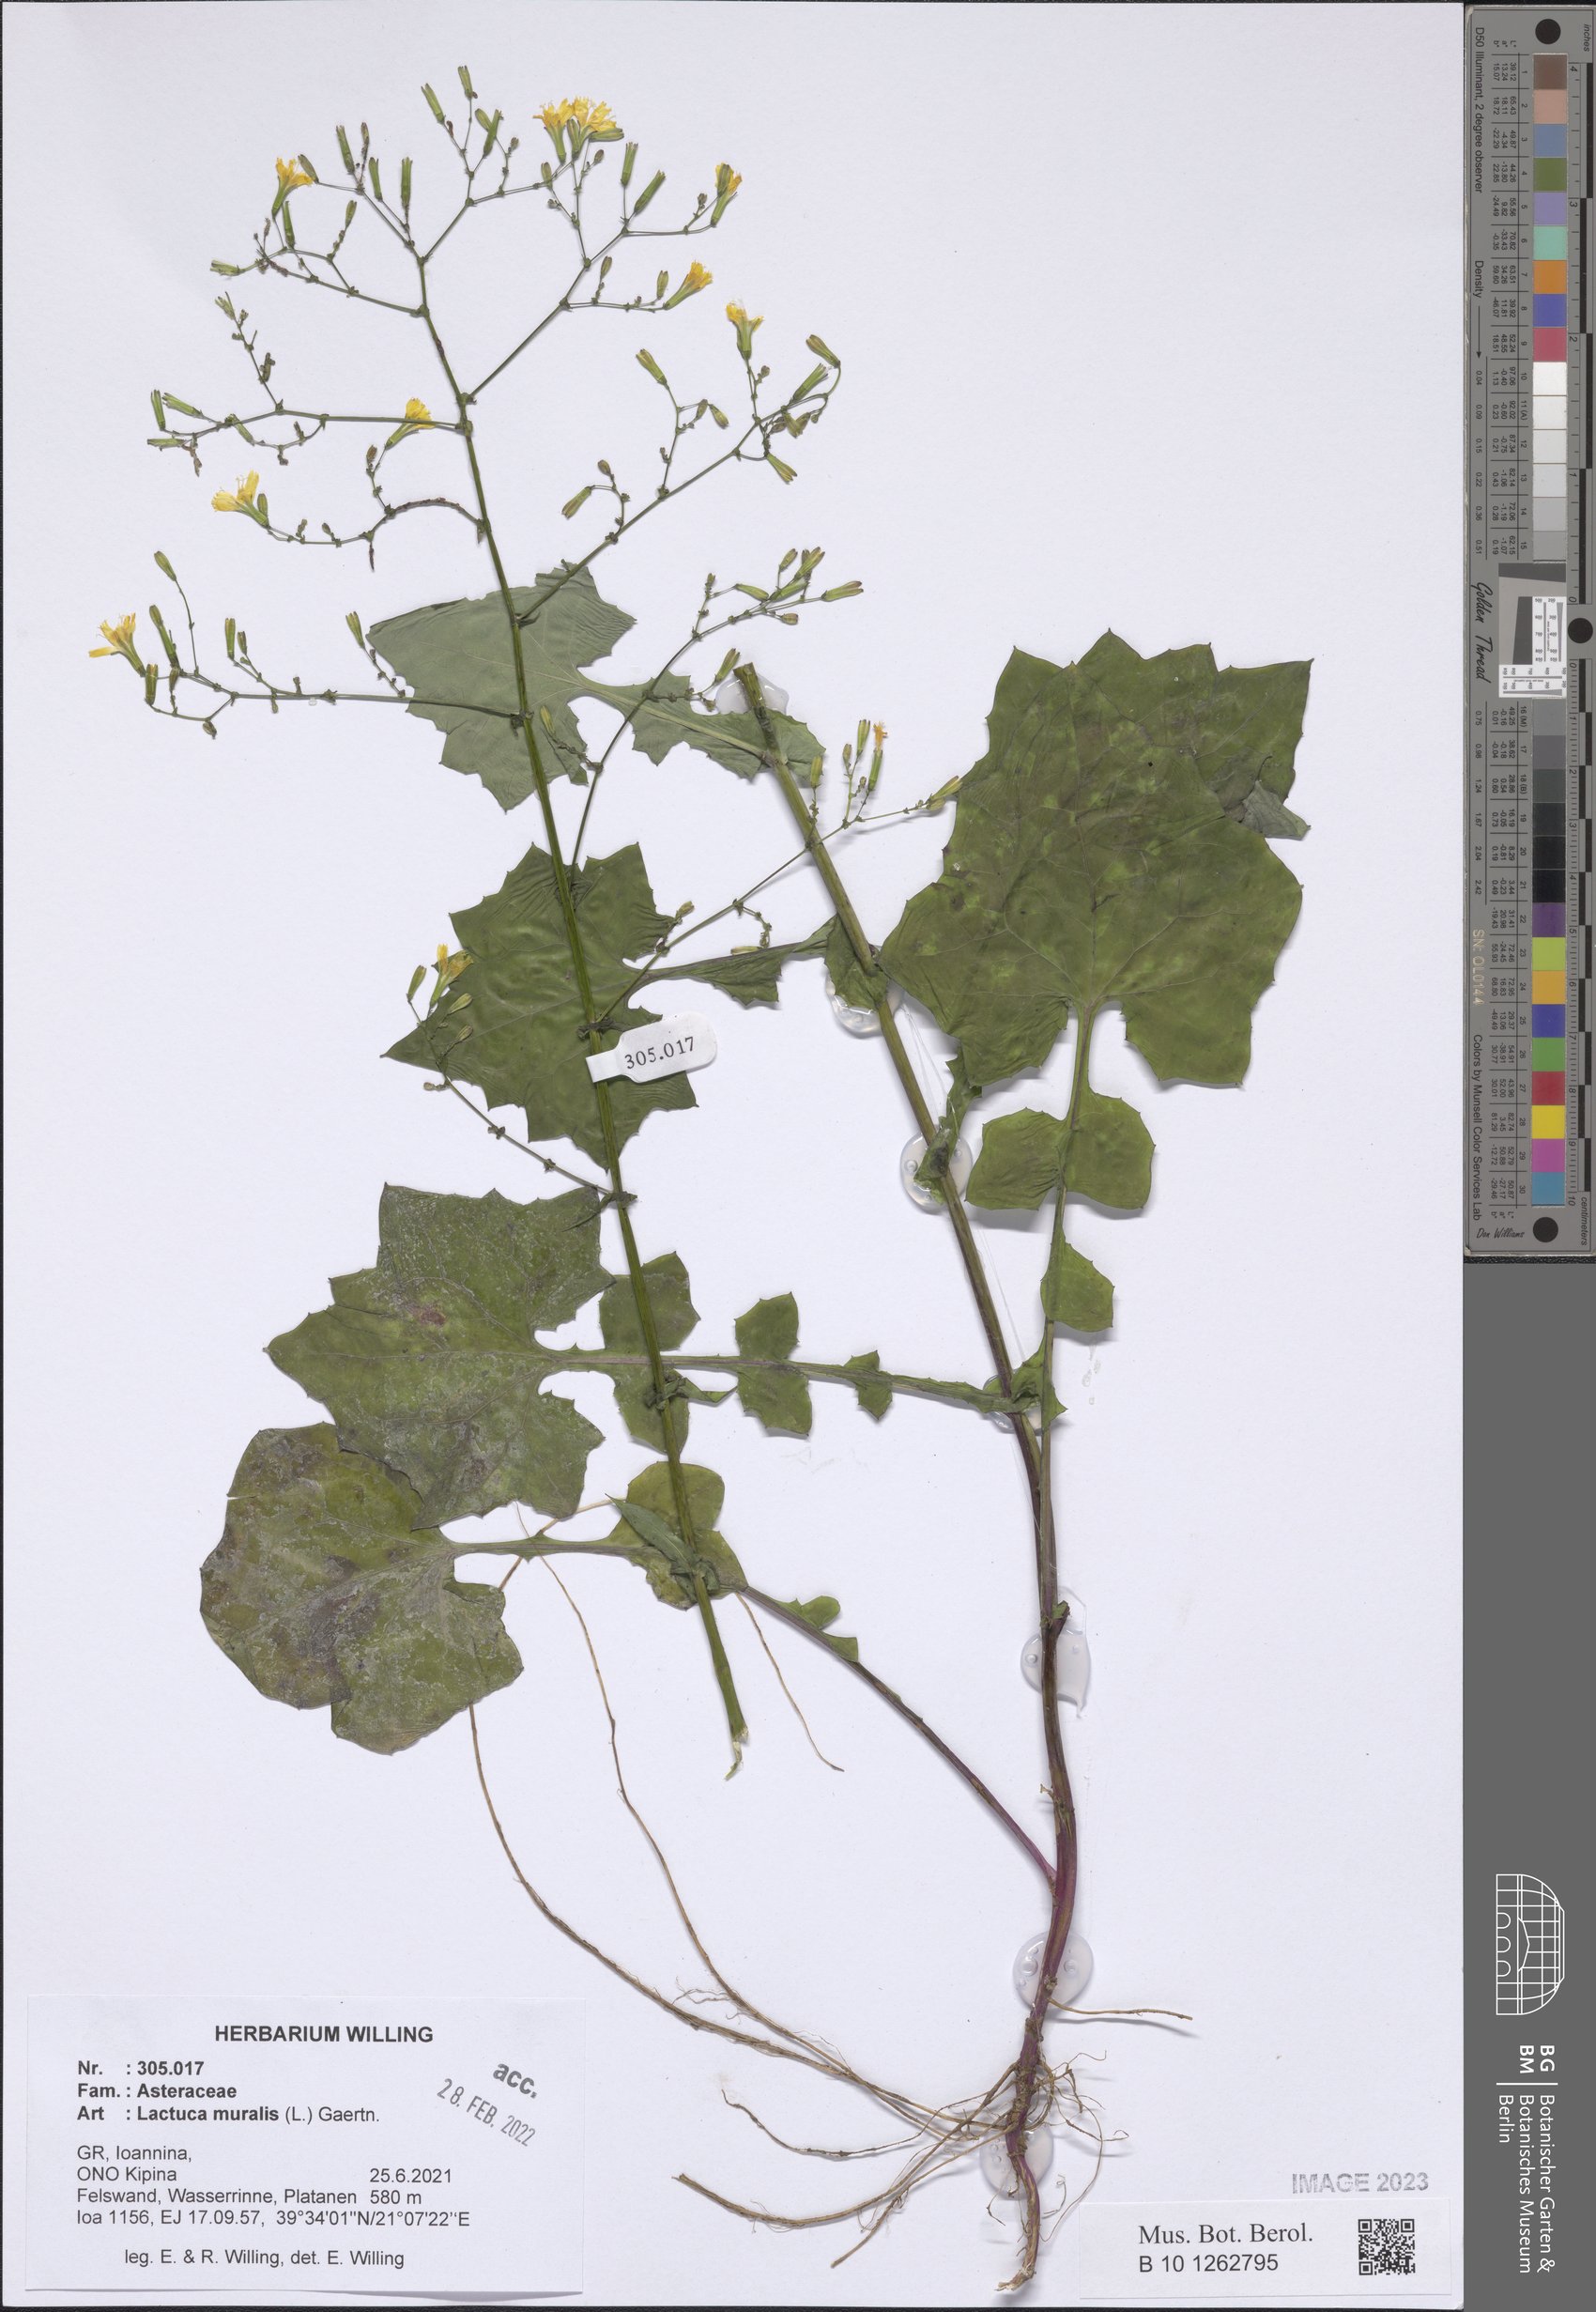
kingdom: Plantae
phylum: Tracheophyta
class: Magnoliopsida
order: Asterales
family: Asteraceae
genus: Mycelis
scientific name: Mycelis muralis
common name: Wall lettuce
